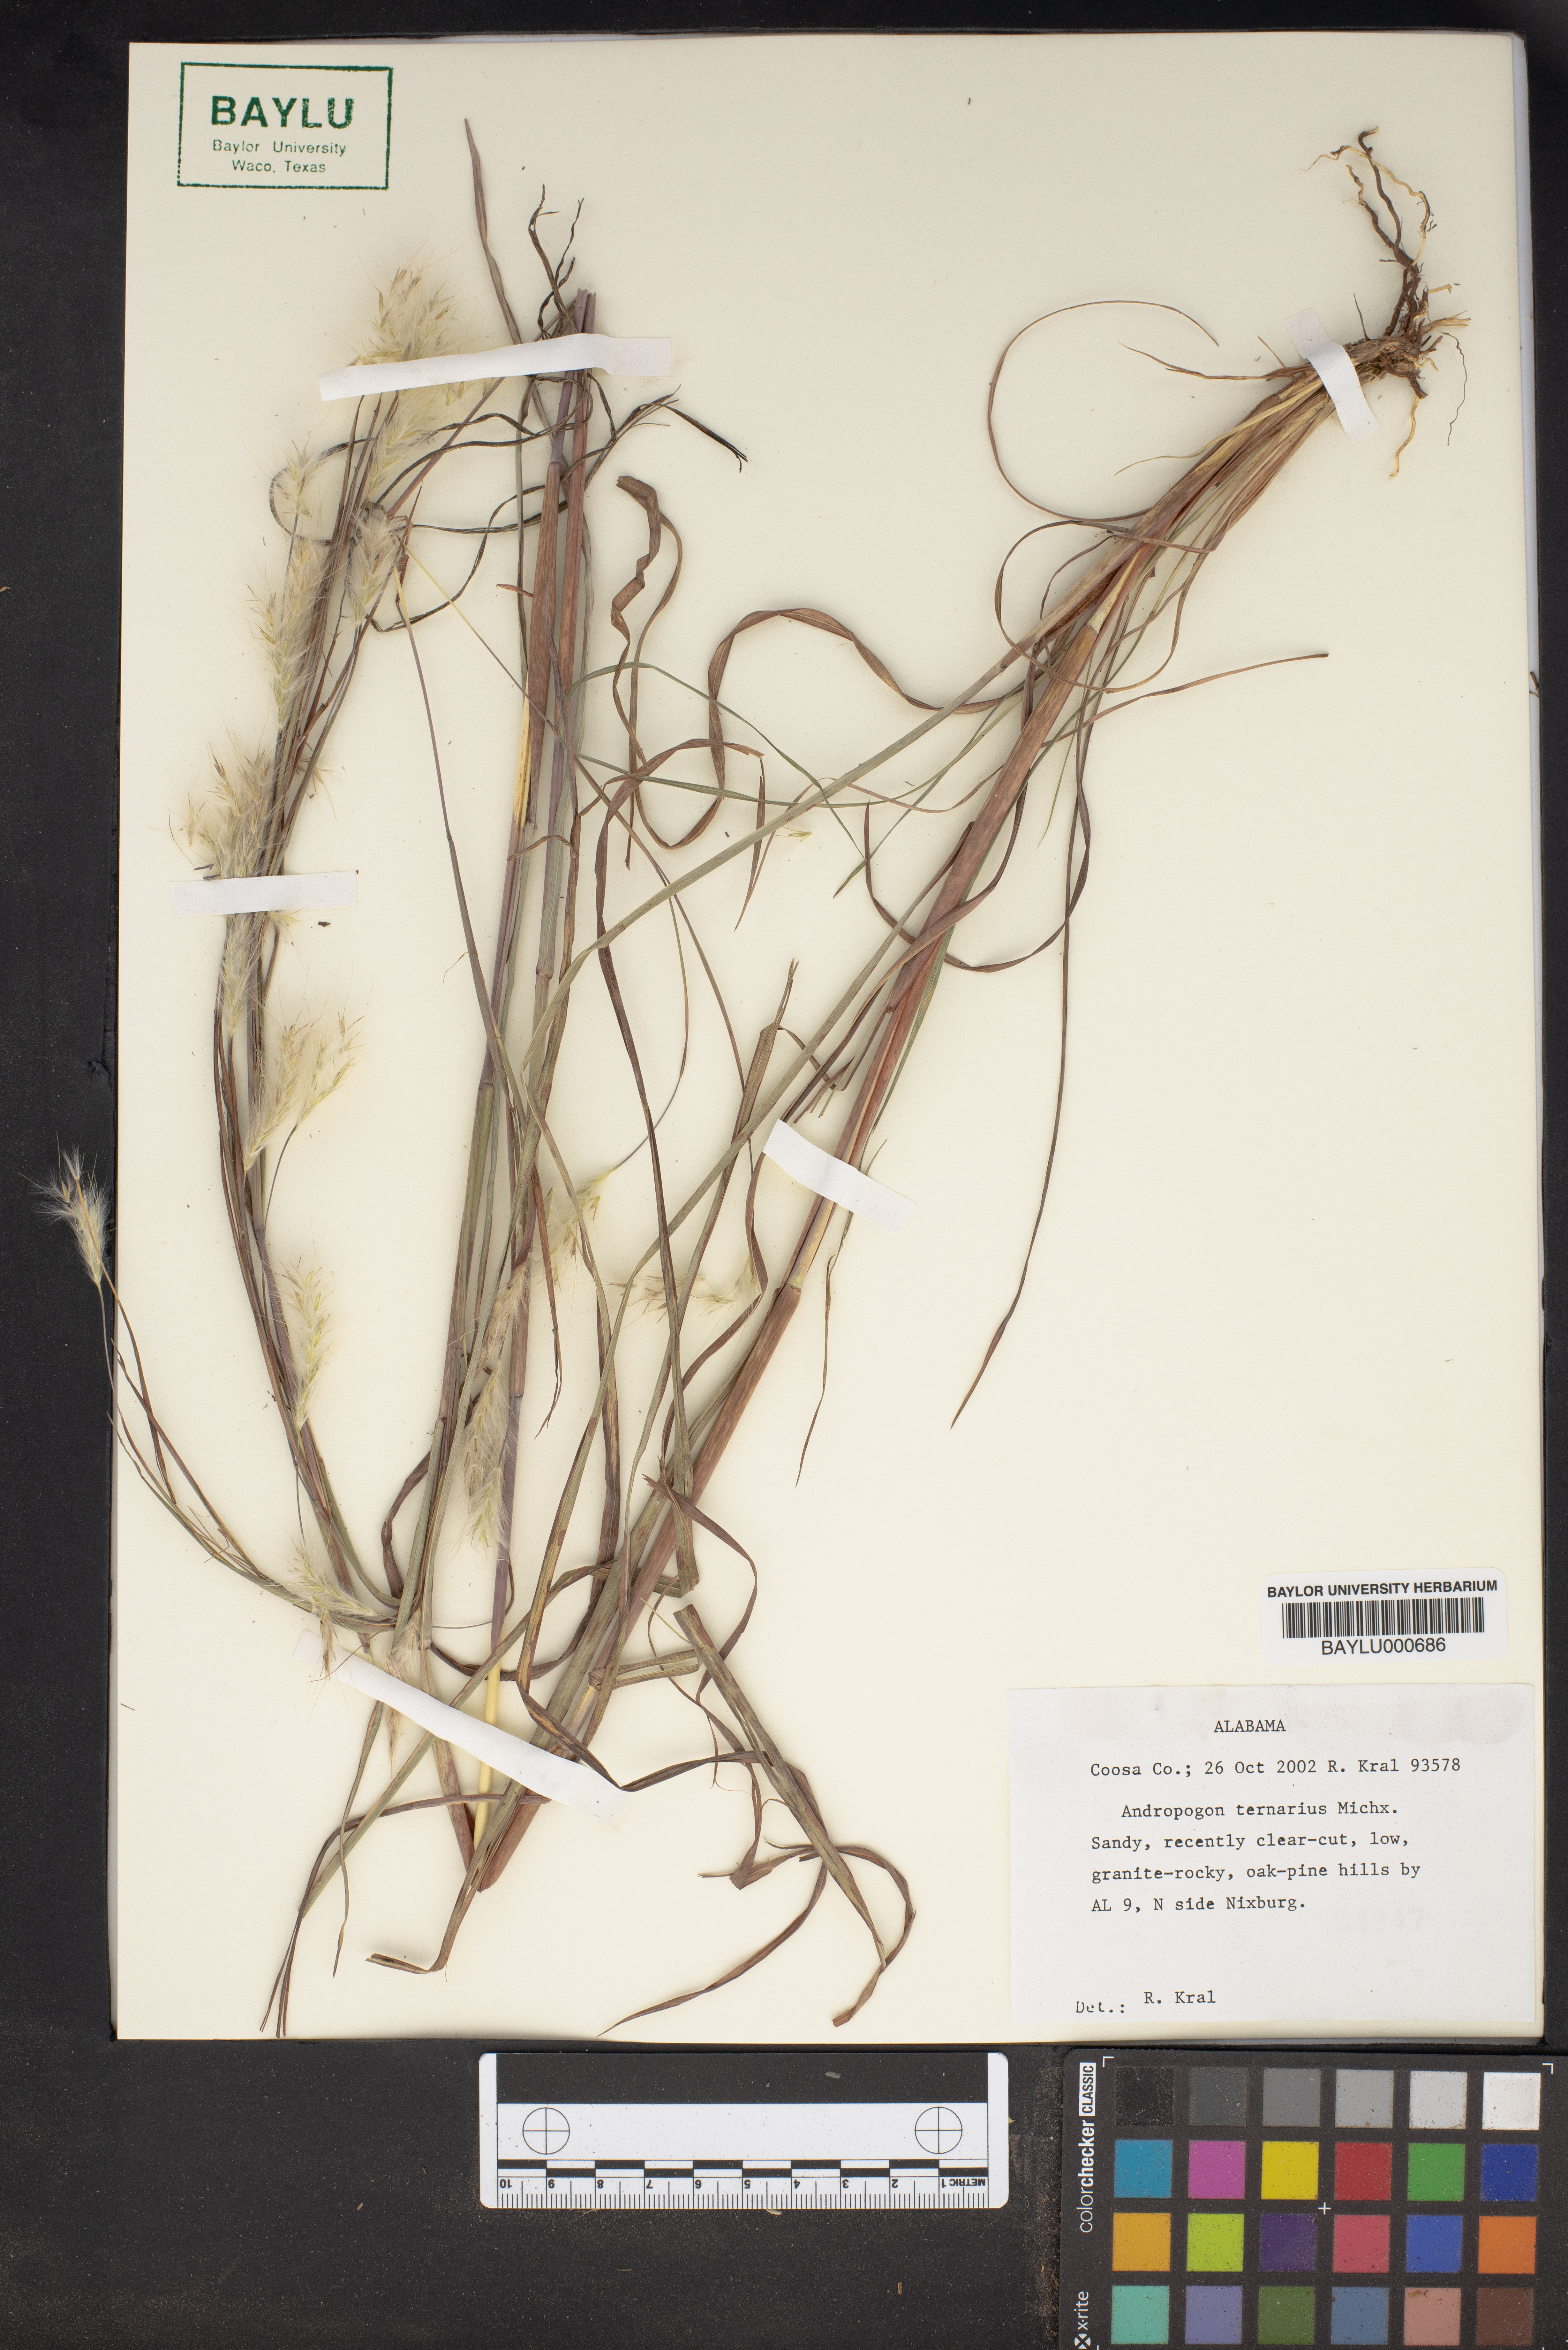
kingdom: Plantae
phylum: Tracheophyta
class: Liliopsida
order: Poales
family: Poaceae
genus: Andropogon
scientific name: Andropogon ternarius
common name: Split bluestem
